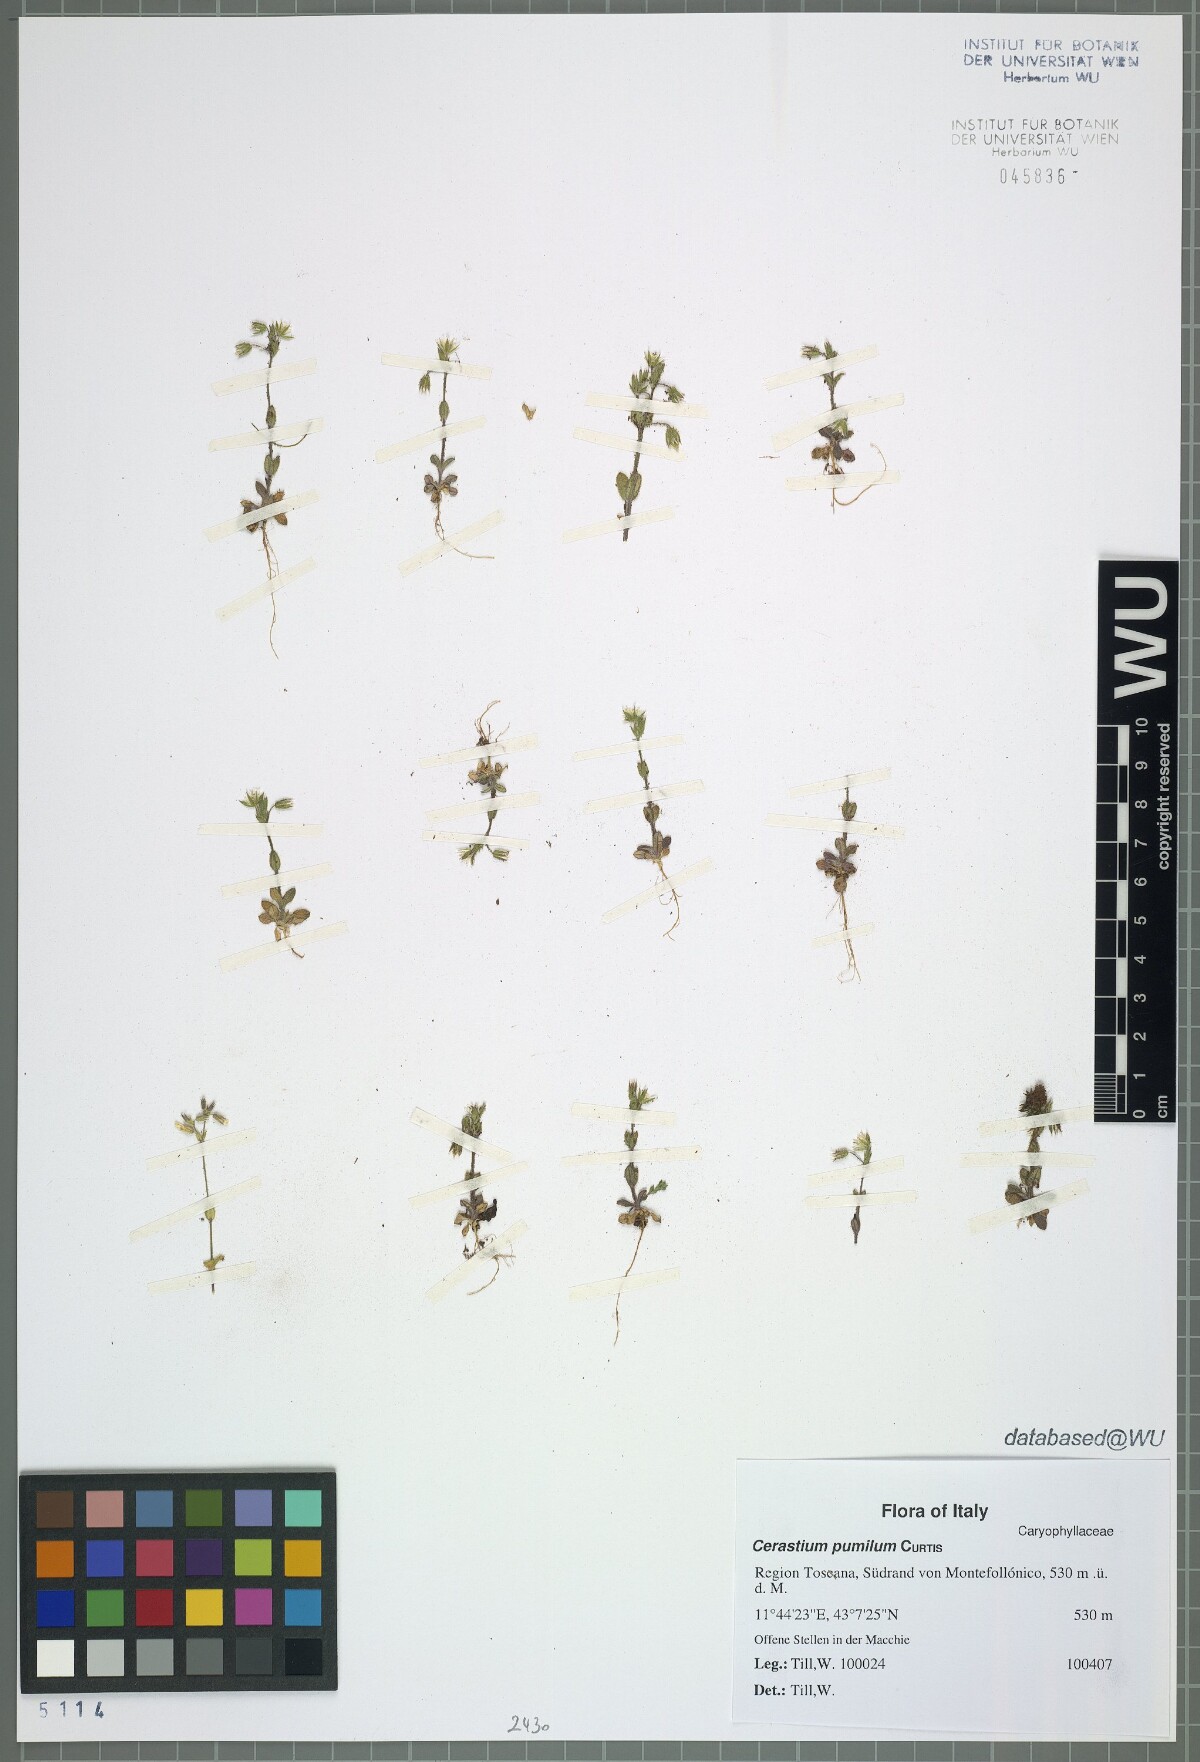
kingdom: Plantae
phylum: Tracheophyta
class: Magnoliopsida
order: Caryophyllales
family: Caryophyllaceae
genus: Cerastium
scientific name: Cerastium pumilum
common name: Dwarf mouse-ear
